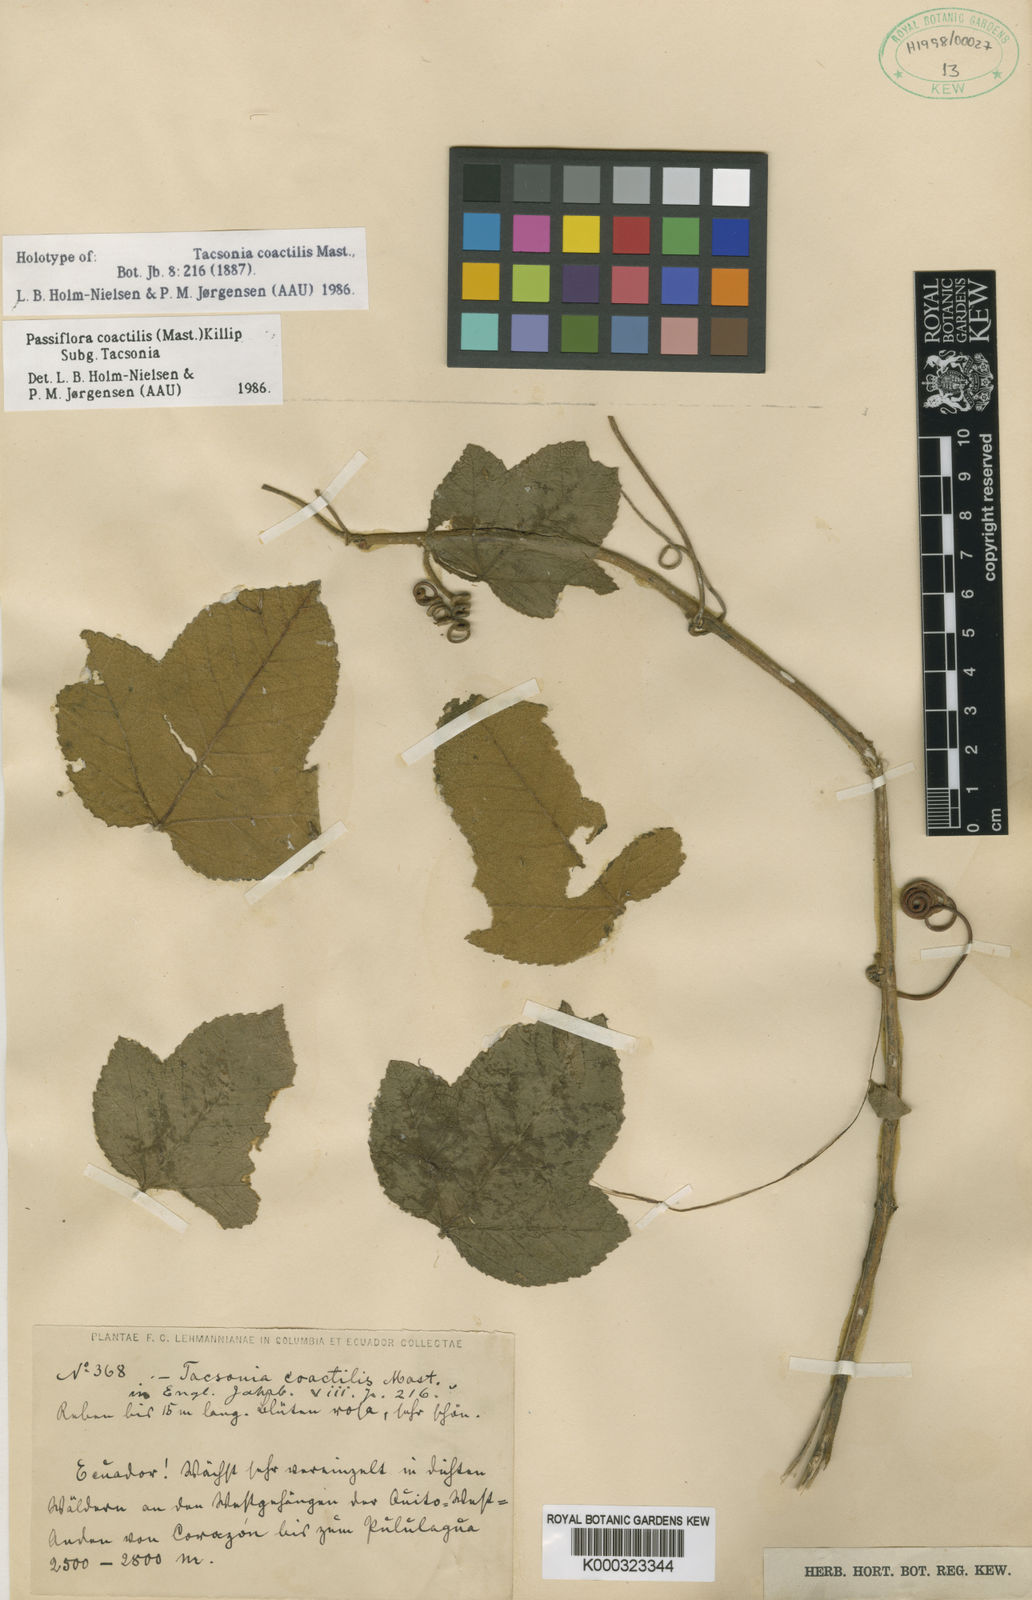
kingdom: Plantae
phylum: Tracheophyta
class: Magnoliopsida
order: Malpighiales
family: Passifloraceae
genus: Passiflora
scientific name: Passiflora coactilis
